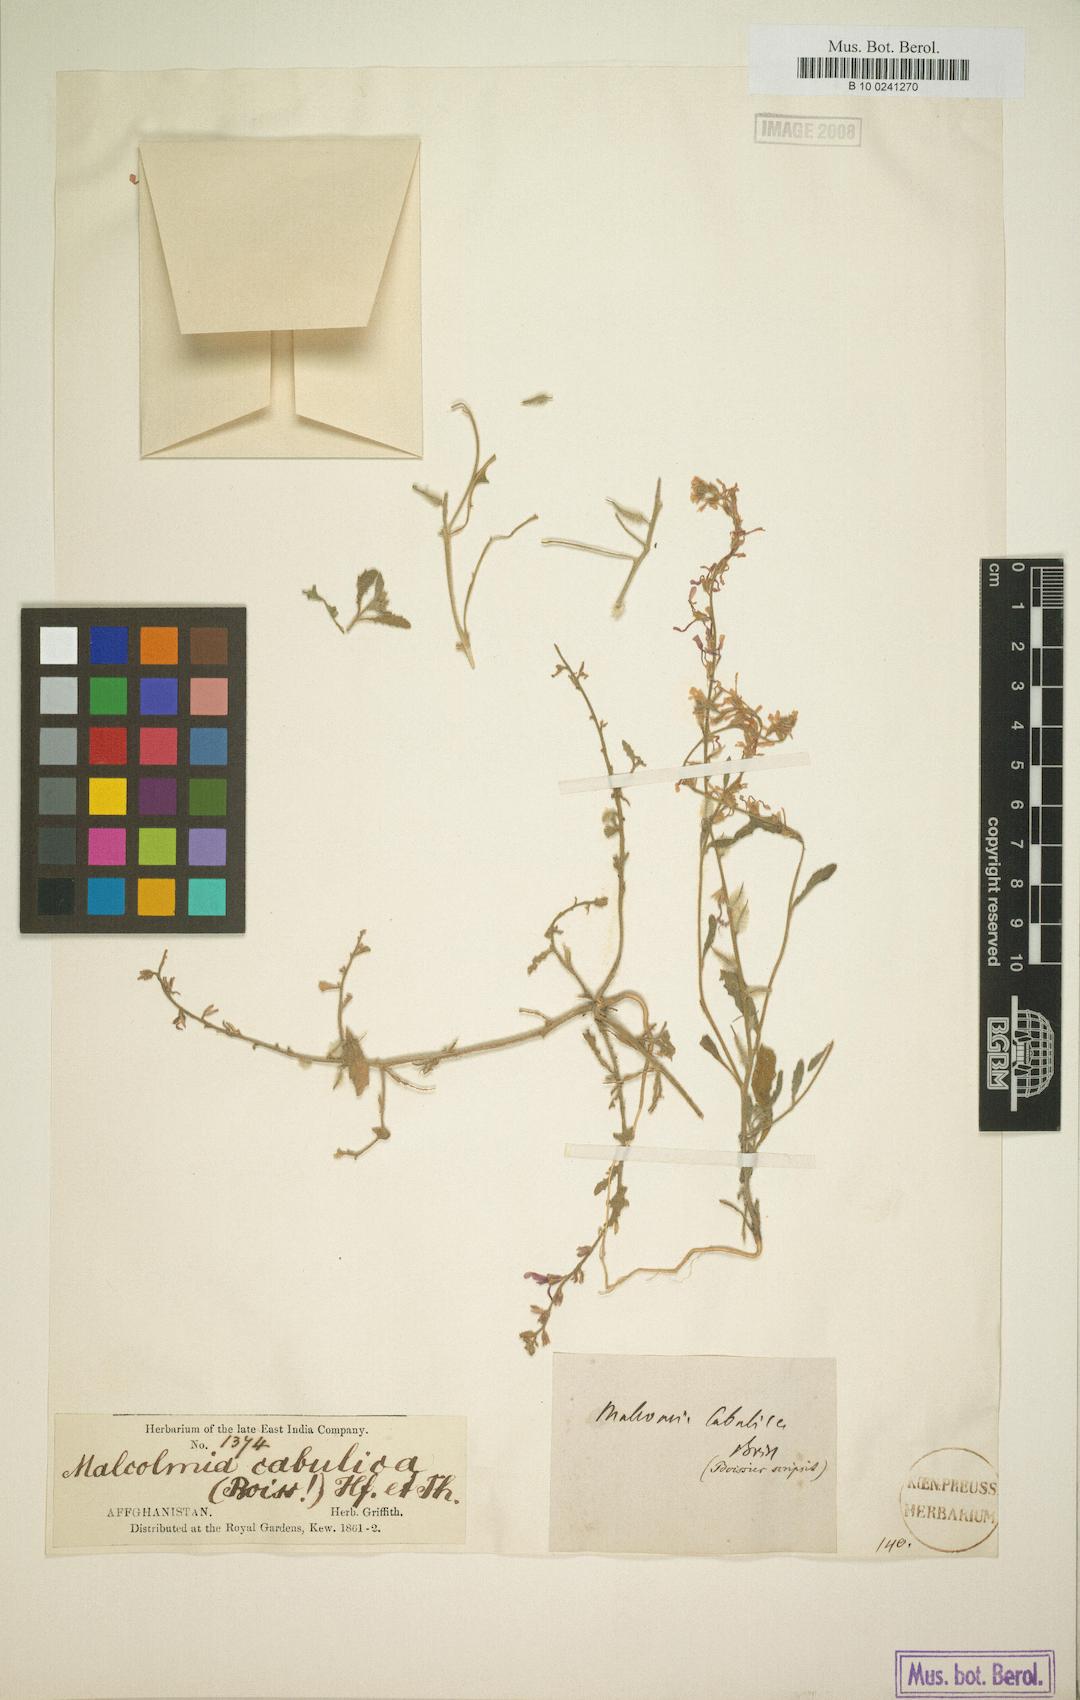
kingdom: Plantae
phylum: Tracheophyta
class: Magnoliopsida
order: Brassicales
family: Brassicaceae
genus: Strigosella
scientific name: Strigosella cabulica
